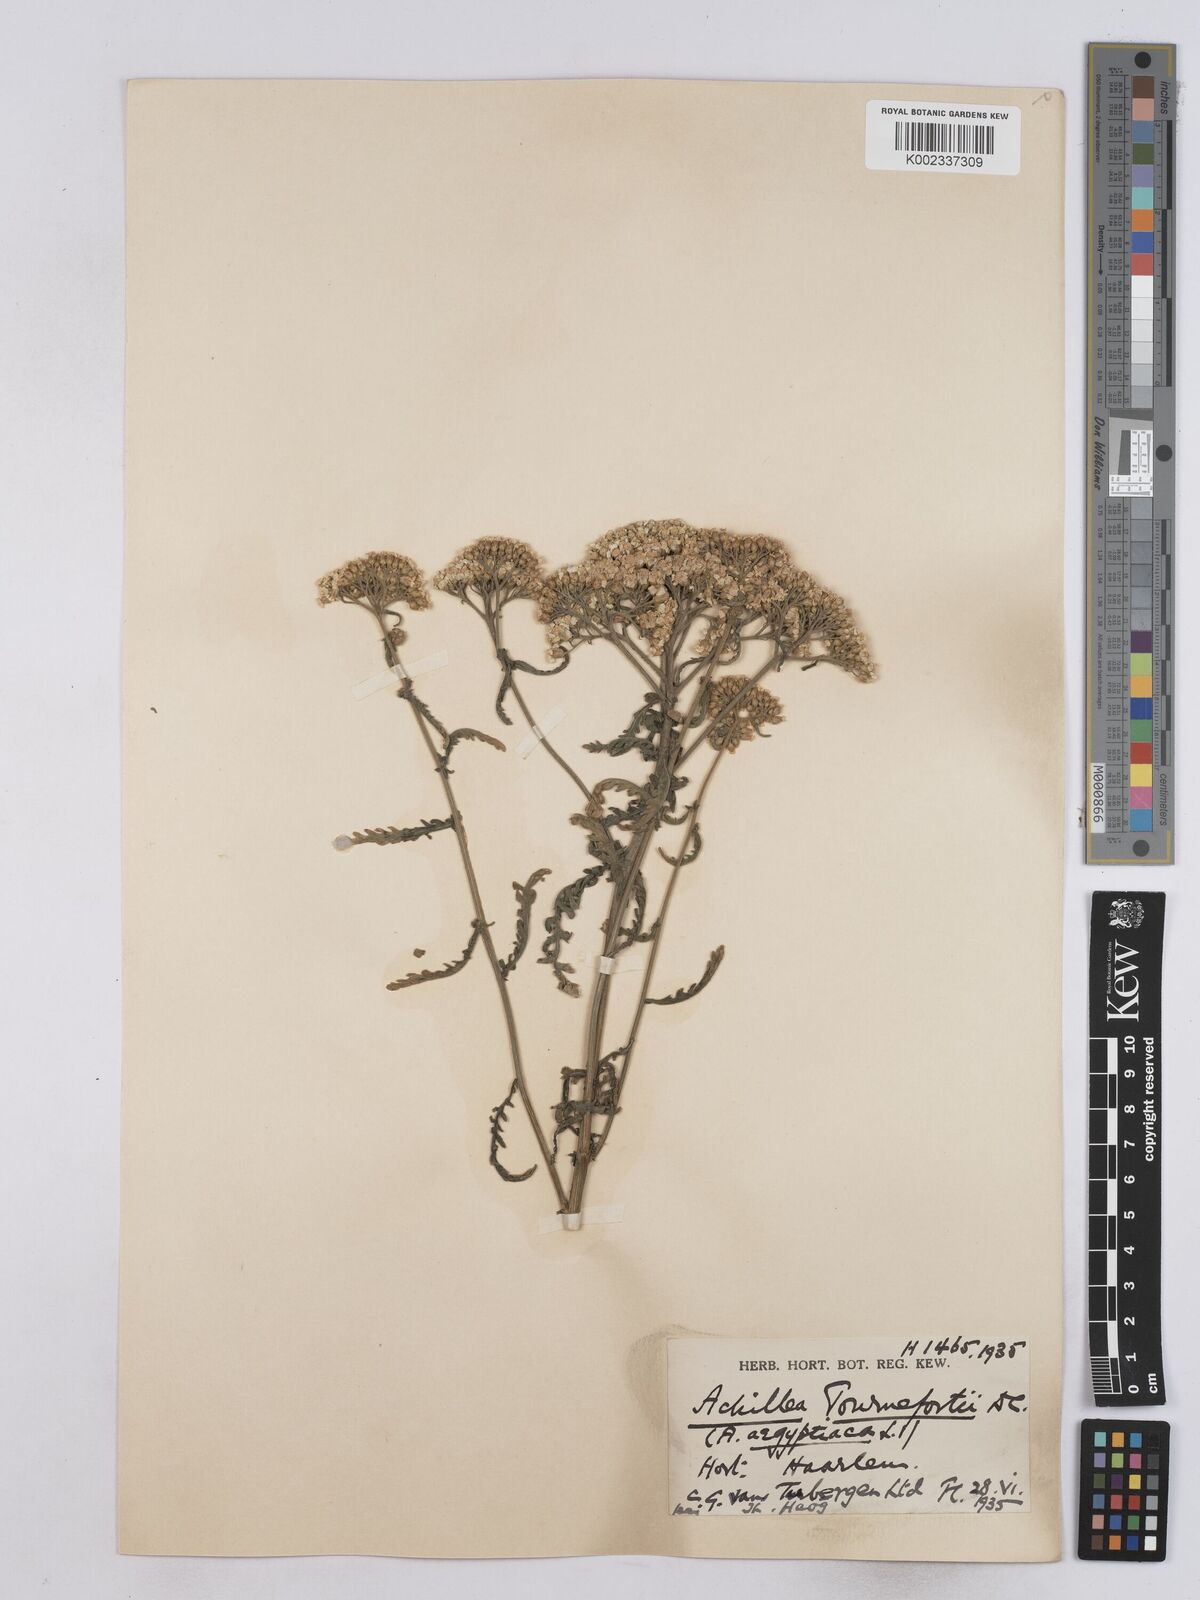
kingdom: Plantae
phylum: Tracheophyta
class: Magnoliopsida
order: Asterales
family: Asteraceae
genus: Achillea
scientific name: Achillea aegyptiaca
